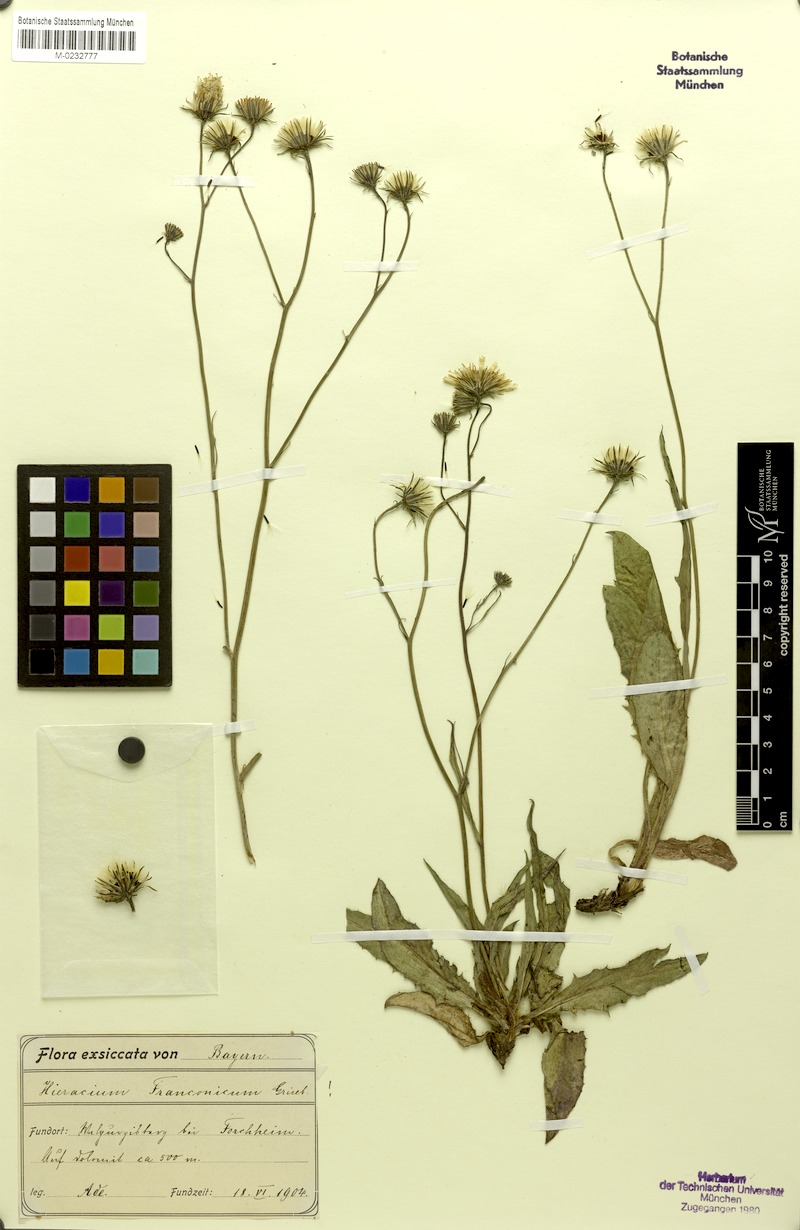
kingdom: Plantae
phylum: Tracheophyta
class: Magnoliopsida
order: Asterales
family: Asteraceae
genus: Hieracium
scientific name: Hieracium franconicum
